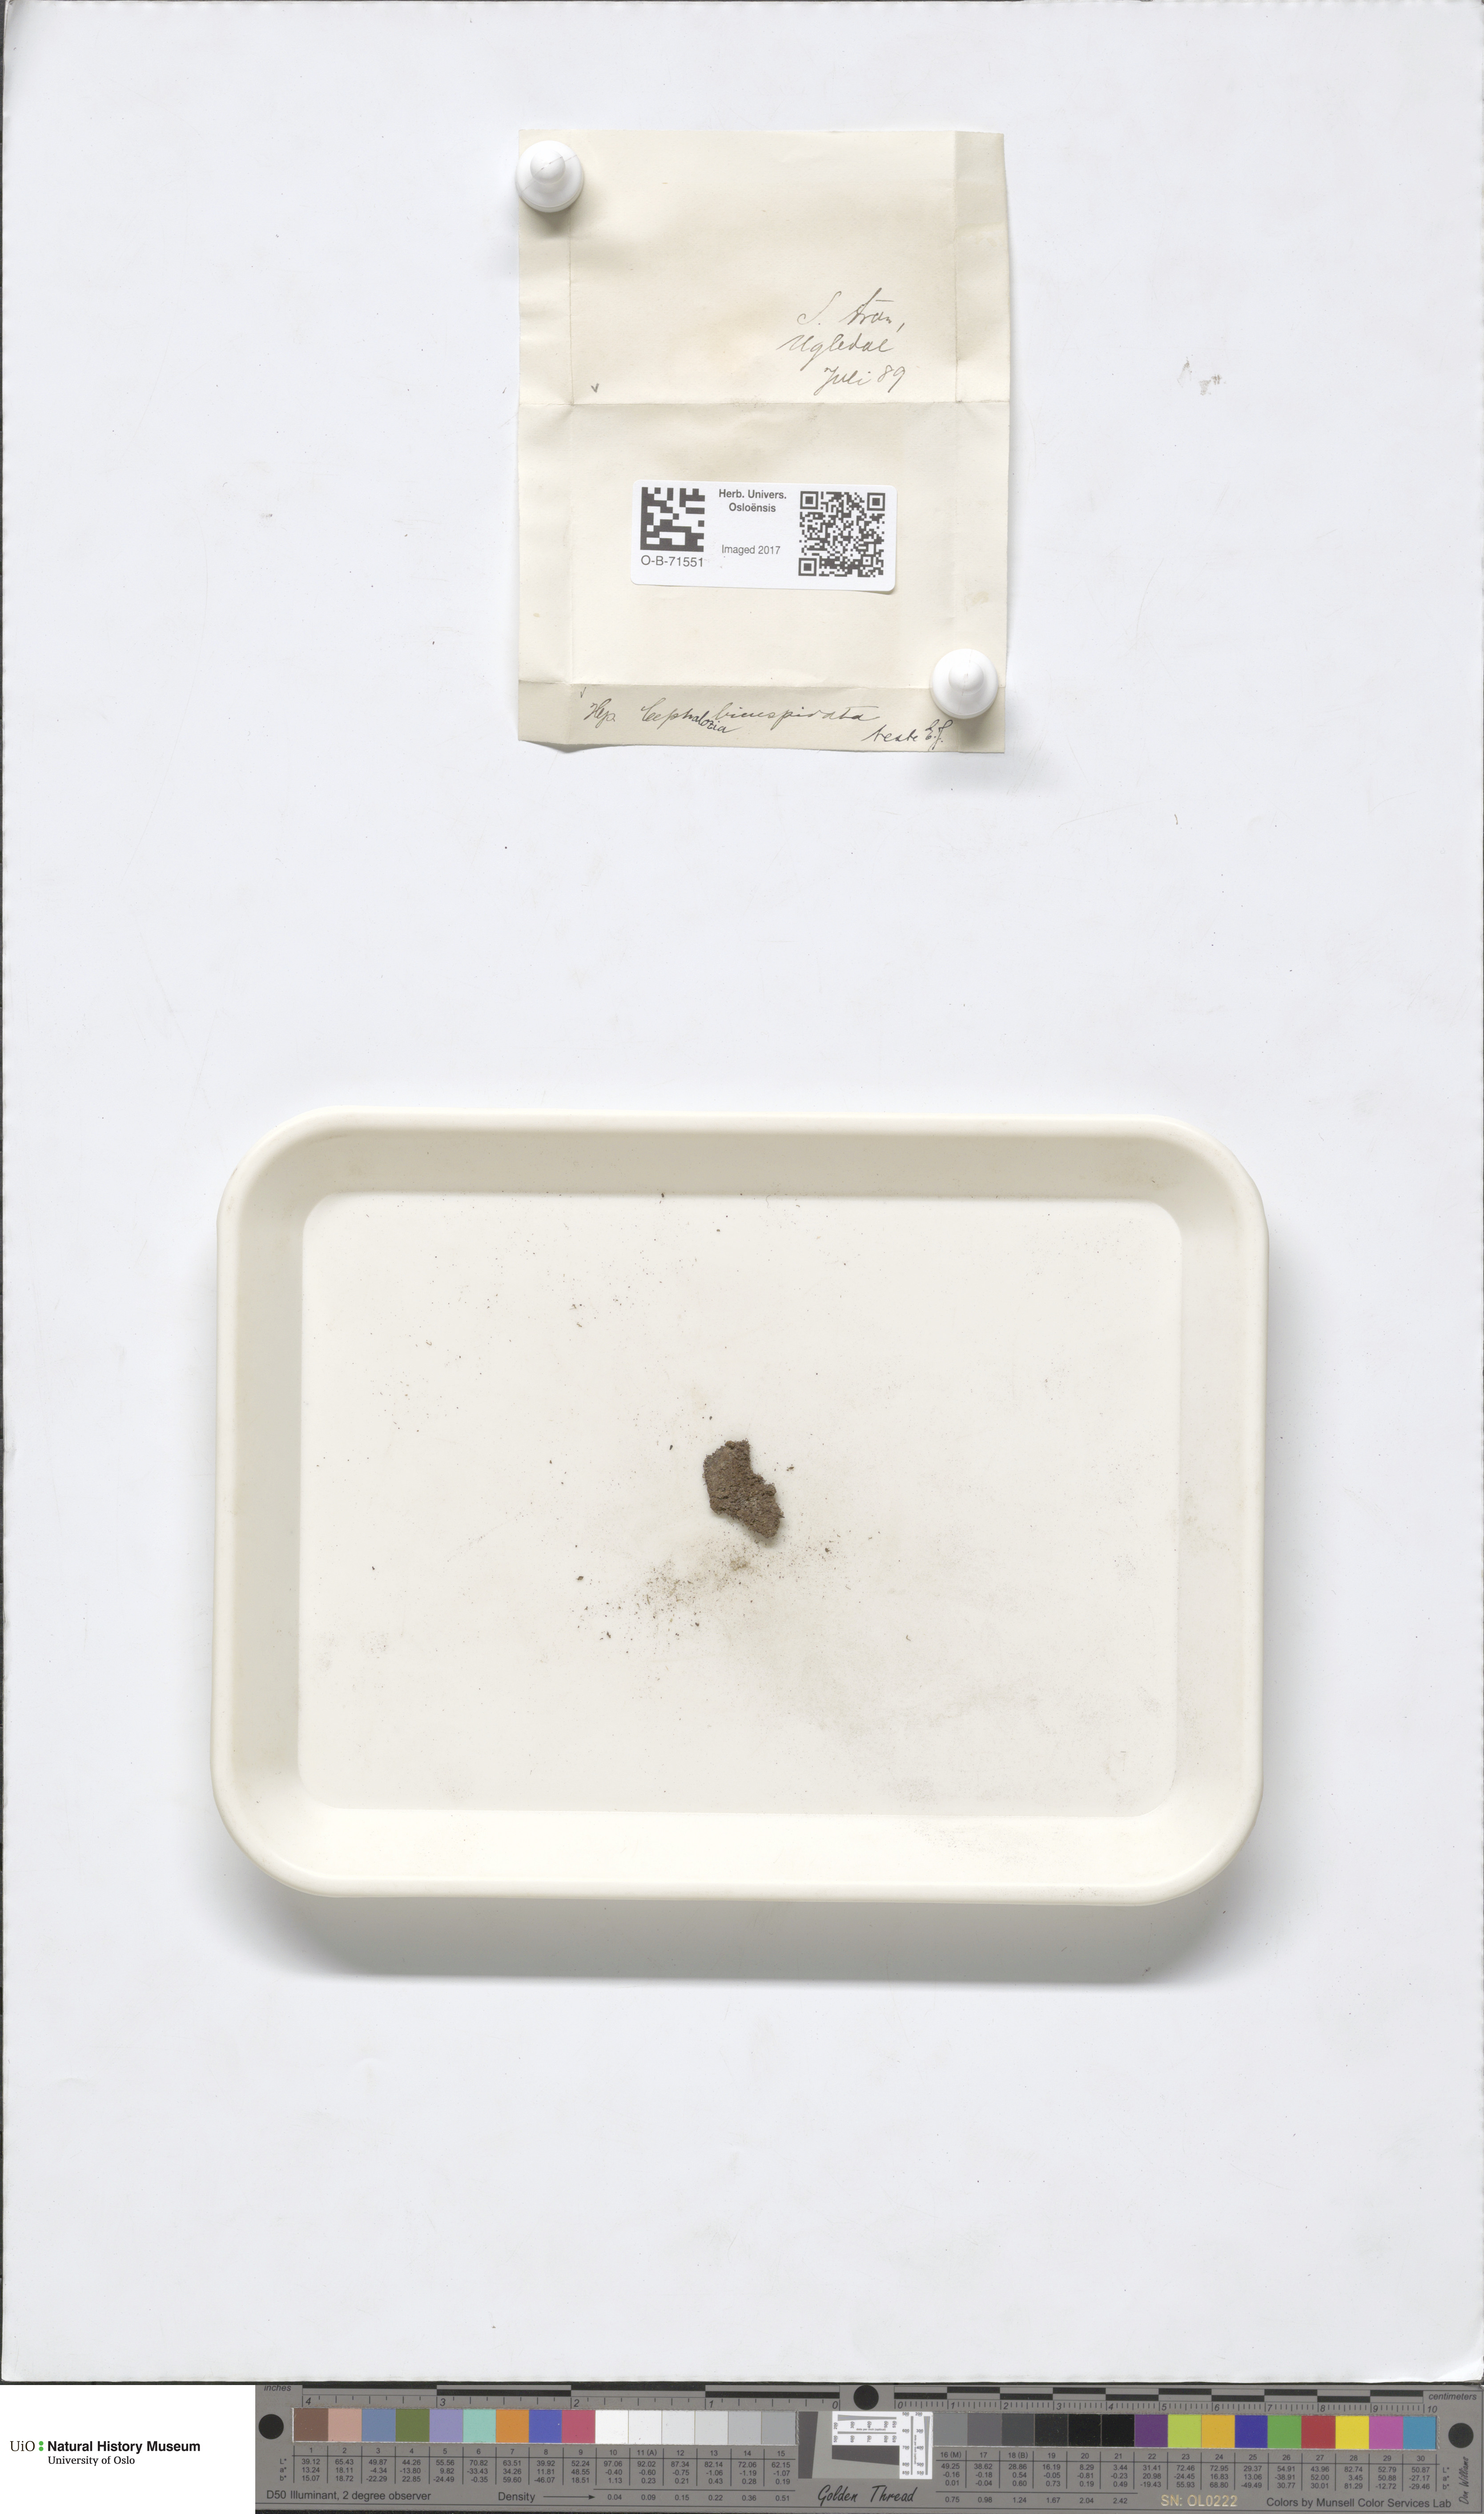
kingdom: Plantae
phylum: Marchantiophyta
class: Jungermanniopsida
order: Jungermanniales
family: Cephaloziaceae
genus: Cephalozia
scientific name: Cephalozia bicuspidata
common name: Two-horned pincerwort
